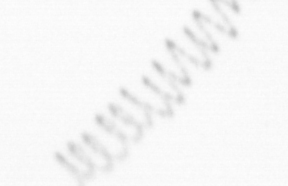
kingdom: Chromista
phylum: Ochrophyta
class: Bacillariophyceae
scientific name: Bacillariophyceae
